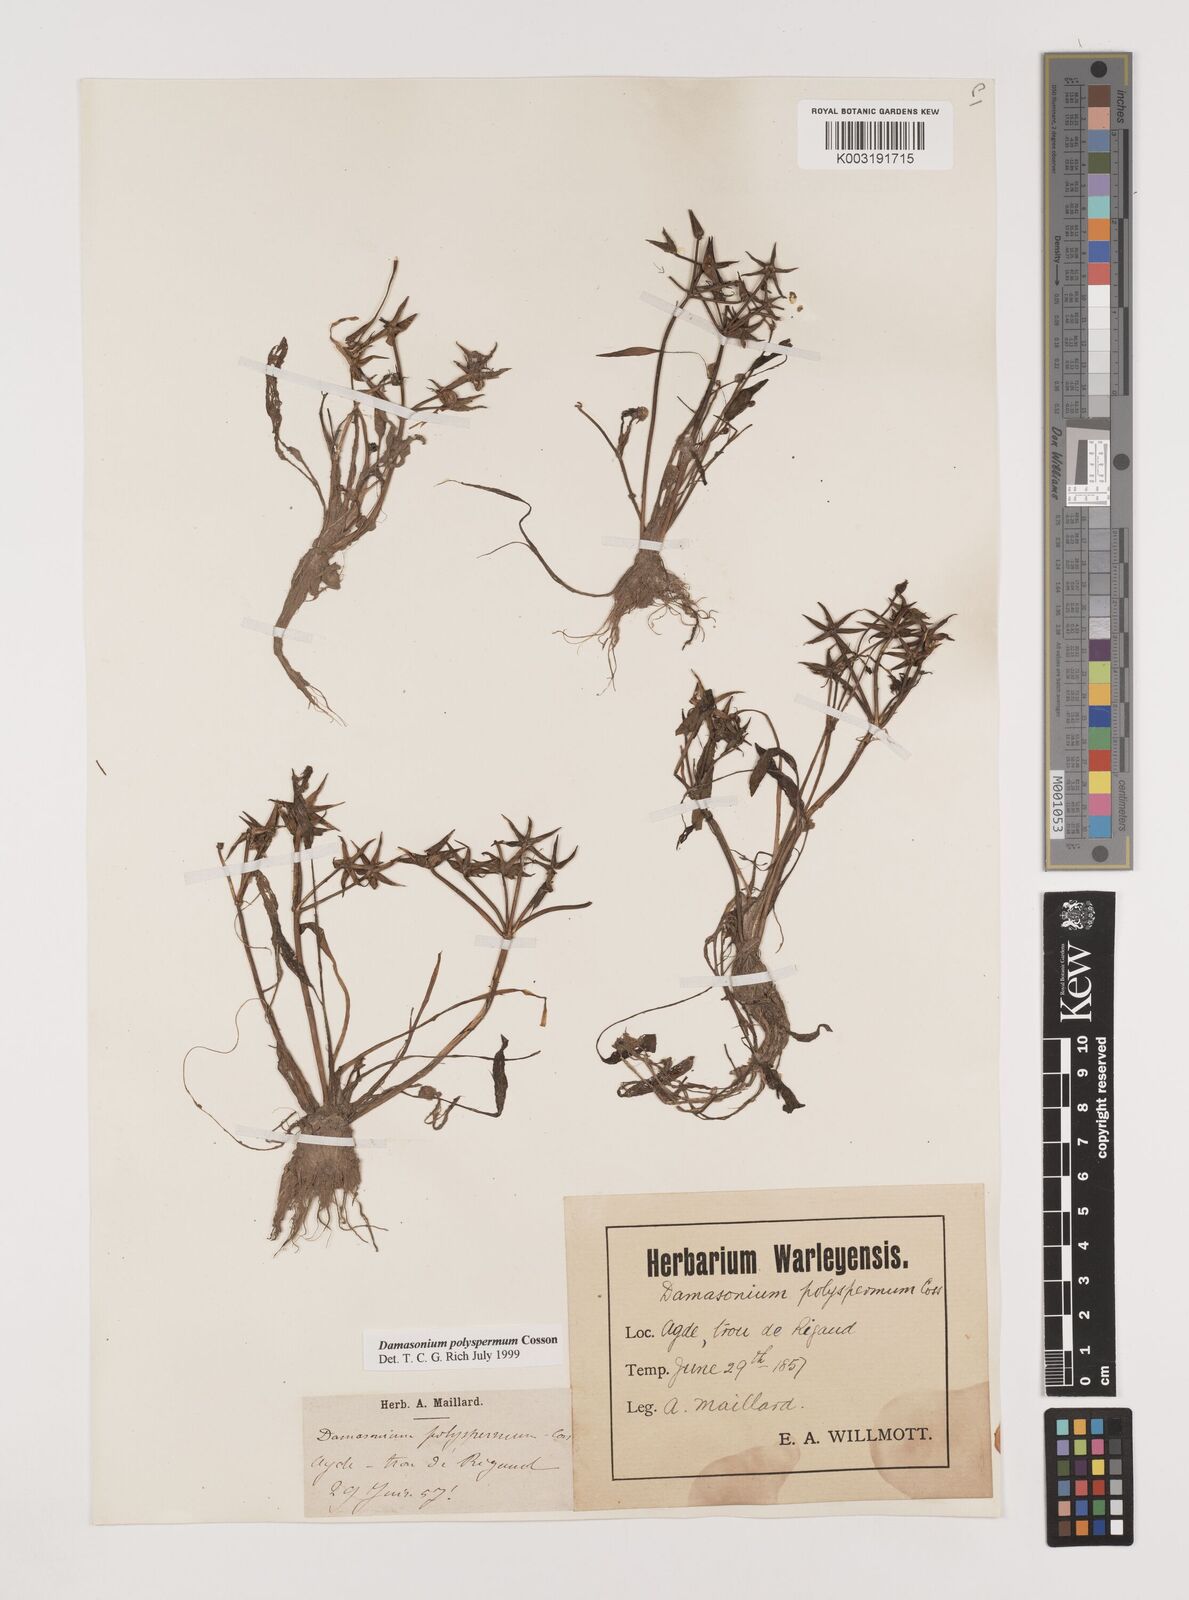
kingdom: Plantae
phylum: Tracheophyta
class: Liliopsida
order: Alismatales
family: Alismataceae
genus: Damasonium
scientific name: Damasonium polyspermum
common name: Starfruit
